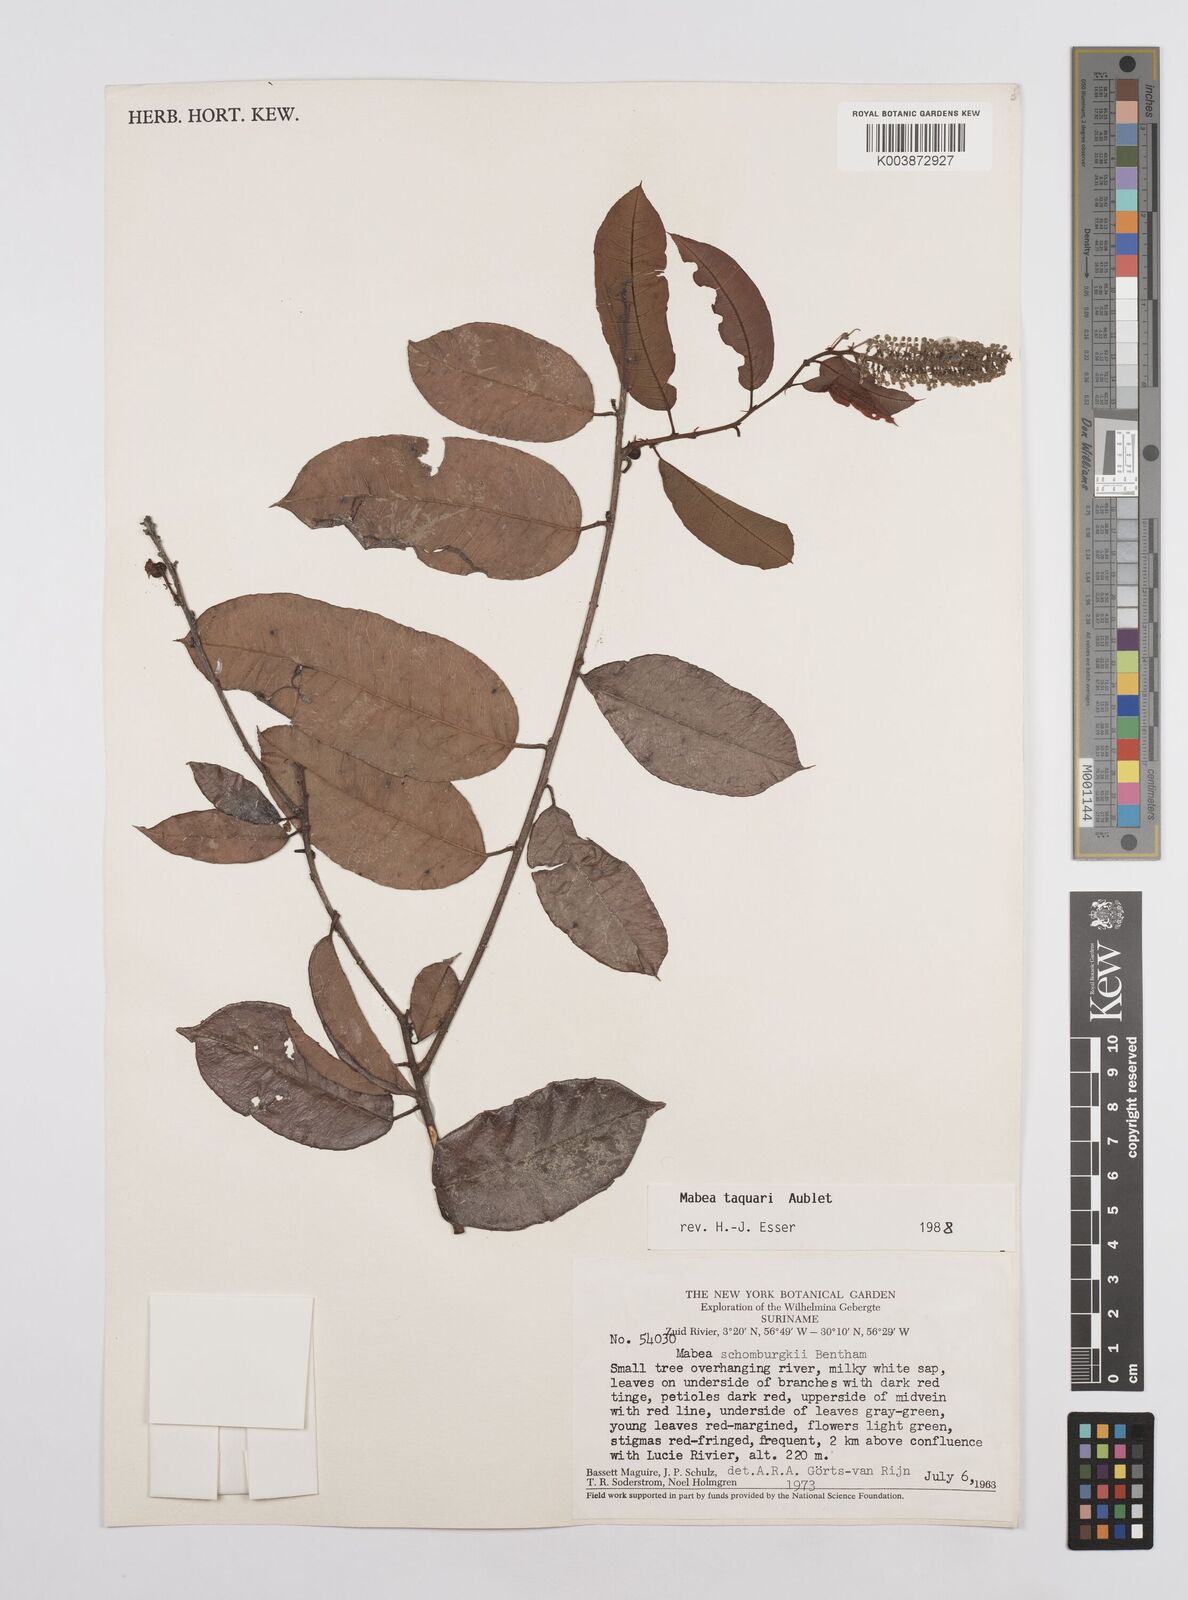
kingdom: Plantae
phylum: Tracheophyta
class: Magnoliopsida
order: Malpighiales
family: Euphorbiaceae
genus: Mabea
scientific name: Mabea taquari
